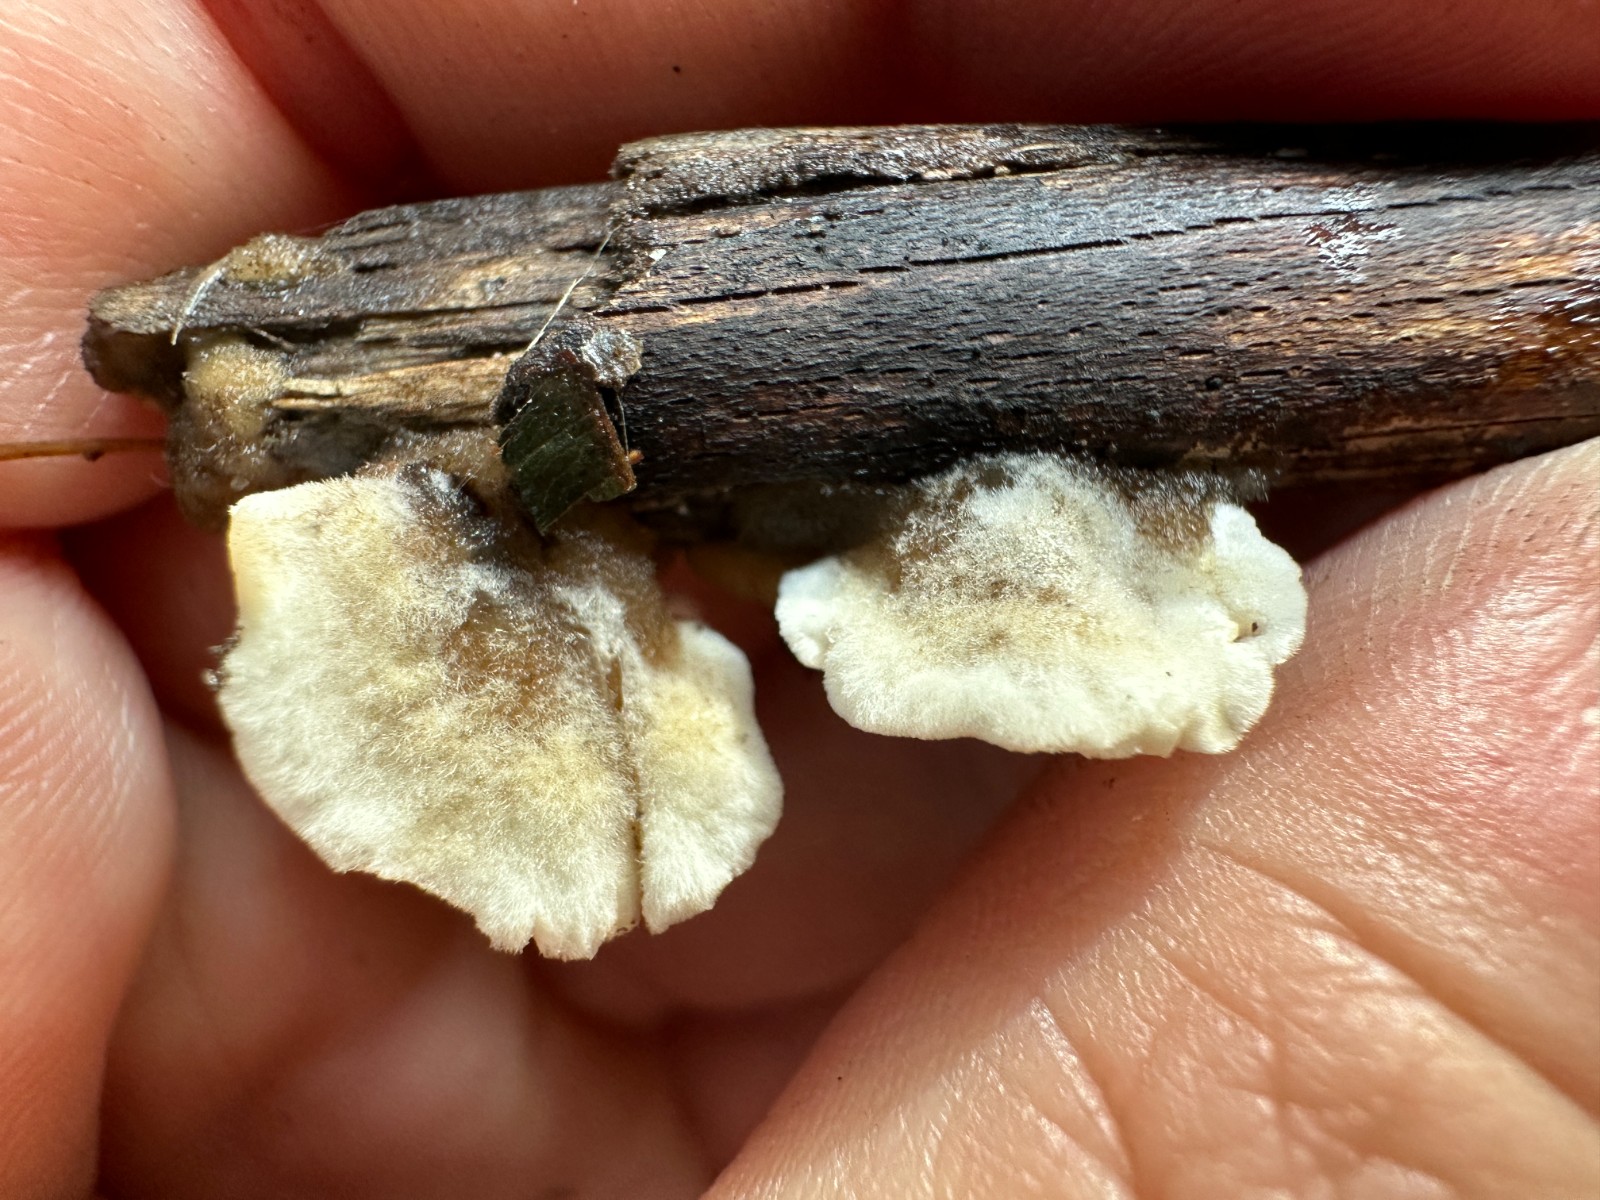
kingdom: Fungi
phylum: Basidiomycota
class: Agaricomycetes
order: Polyporales
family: Phanerochaetaceae
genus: Bjerkandera
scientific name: Bjerkandera adusta
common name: sveden sodporesvamp
